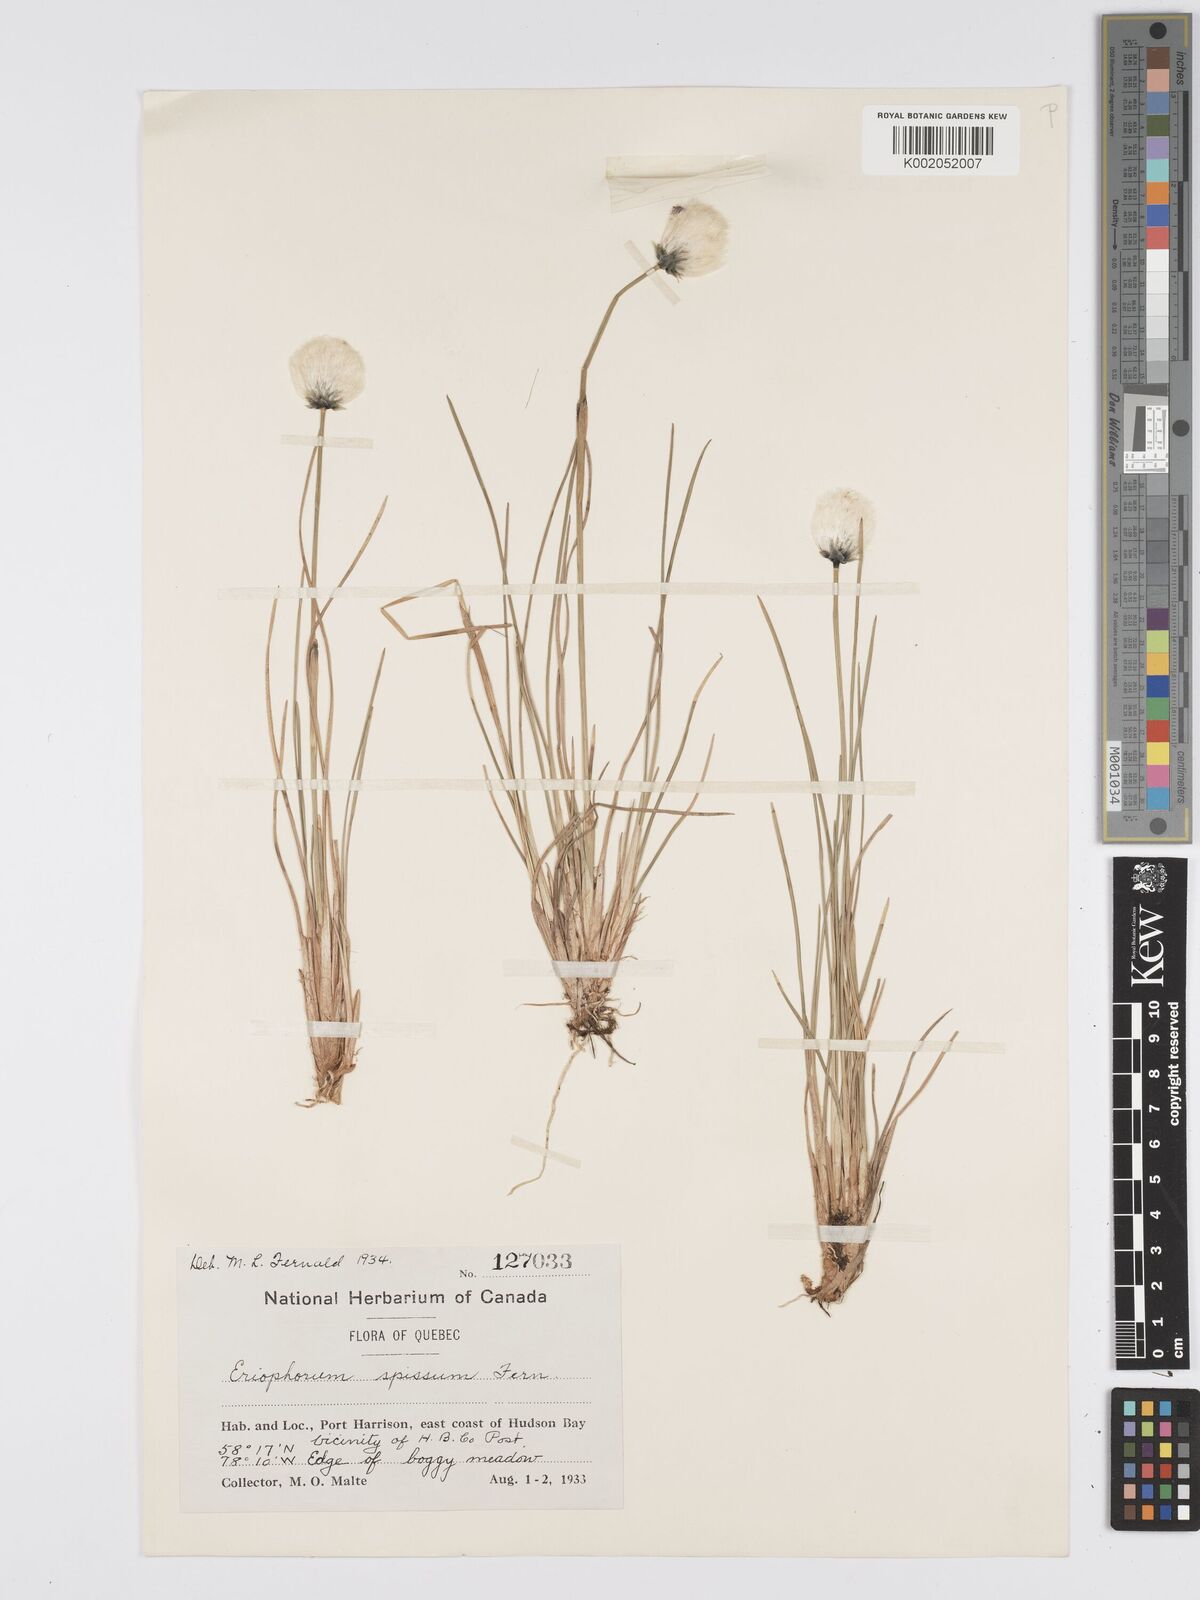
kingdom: Plantae
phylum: Tracheophyta
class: Liliopsida
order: Poales
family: Cyperaceae
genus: Eriophorum
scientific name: Eriophorum vaginatum
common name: Hare's-tail cottongrass
